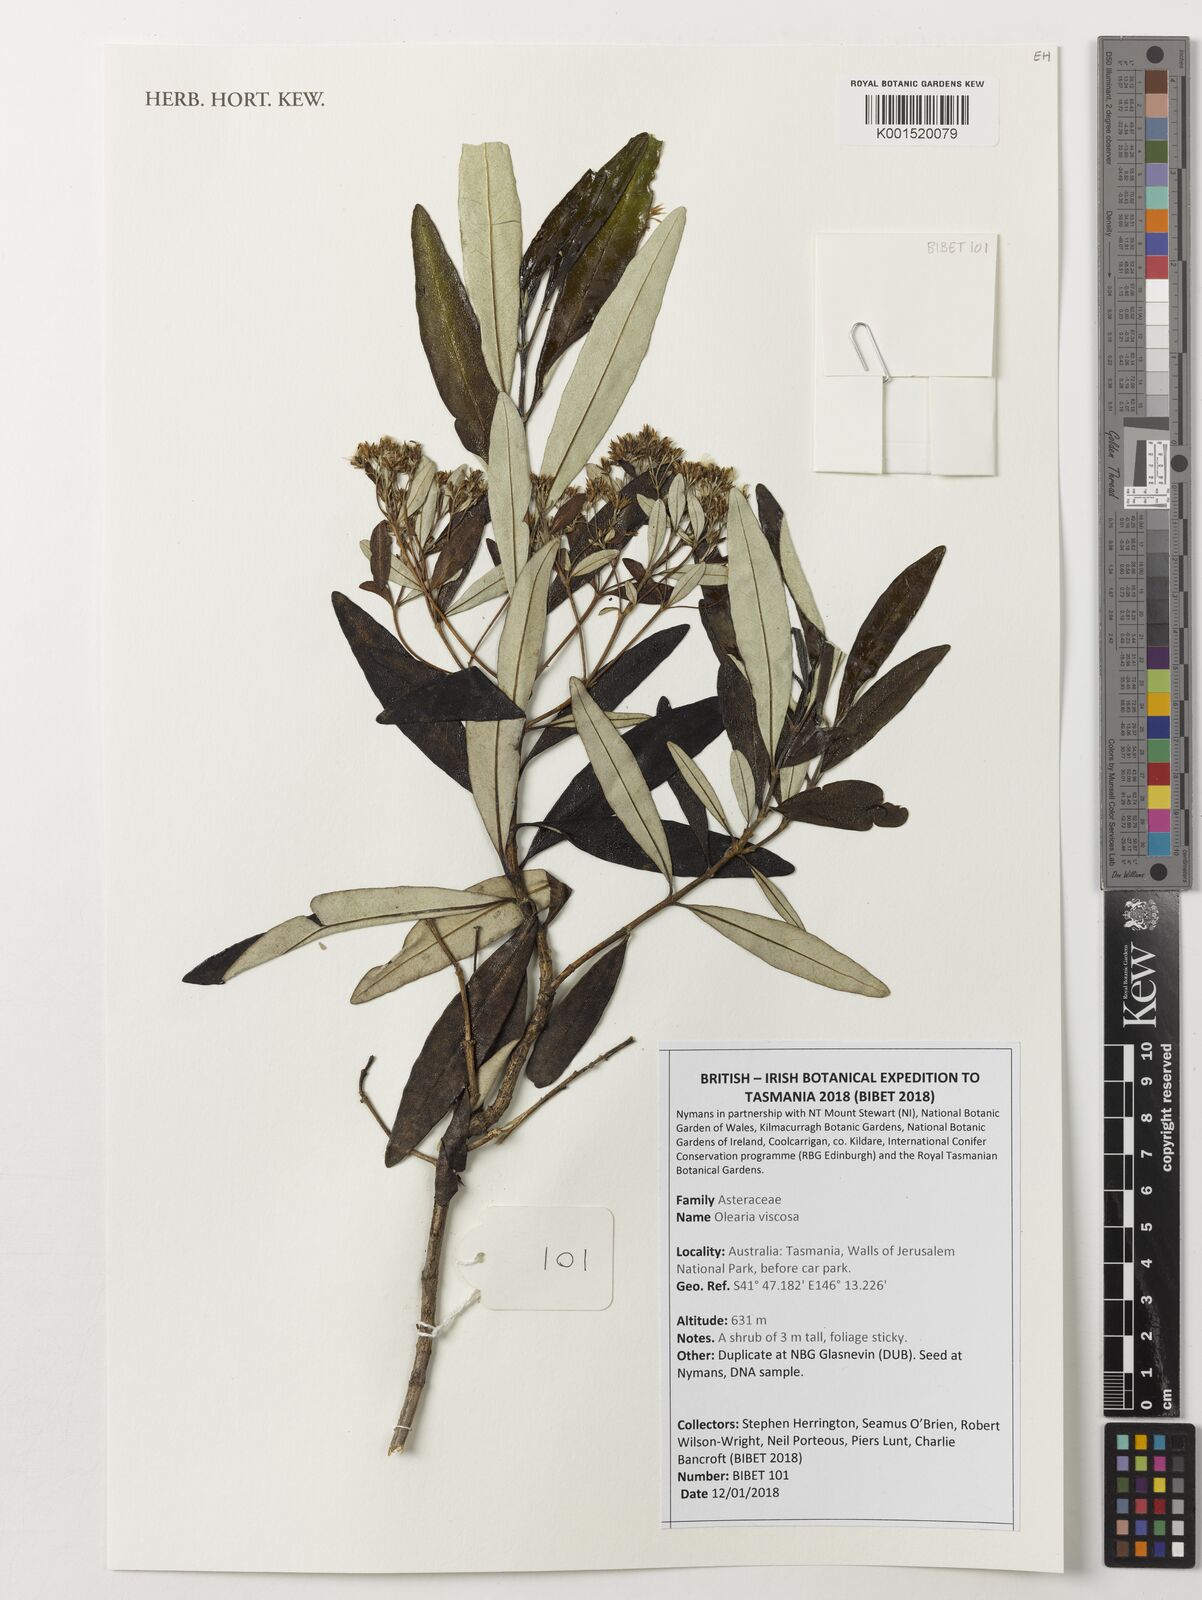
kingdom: Plantae
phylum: Tracheophyta
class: Magnoliopsida
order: Asterales
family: Asteraceae
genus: Olearia
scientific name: Olearia viscosa
